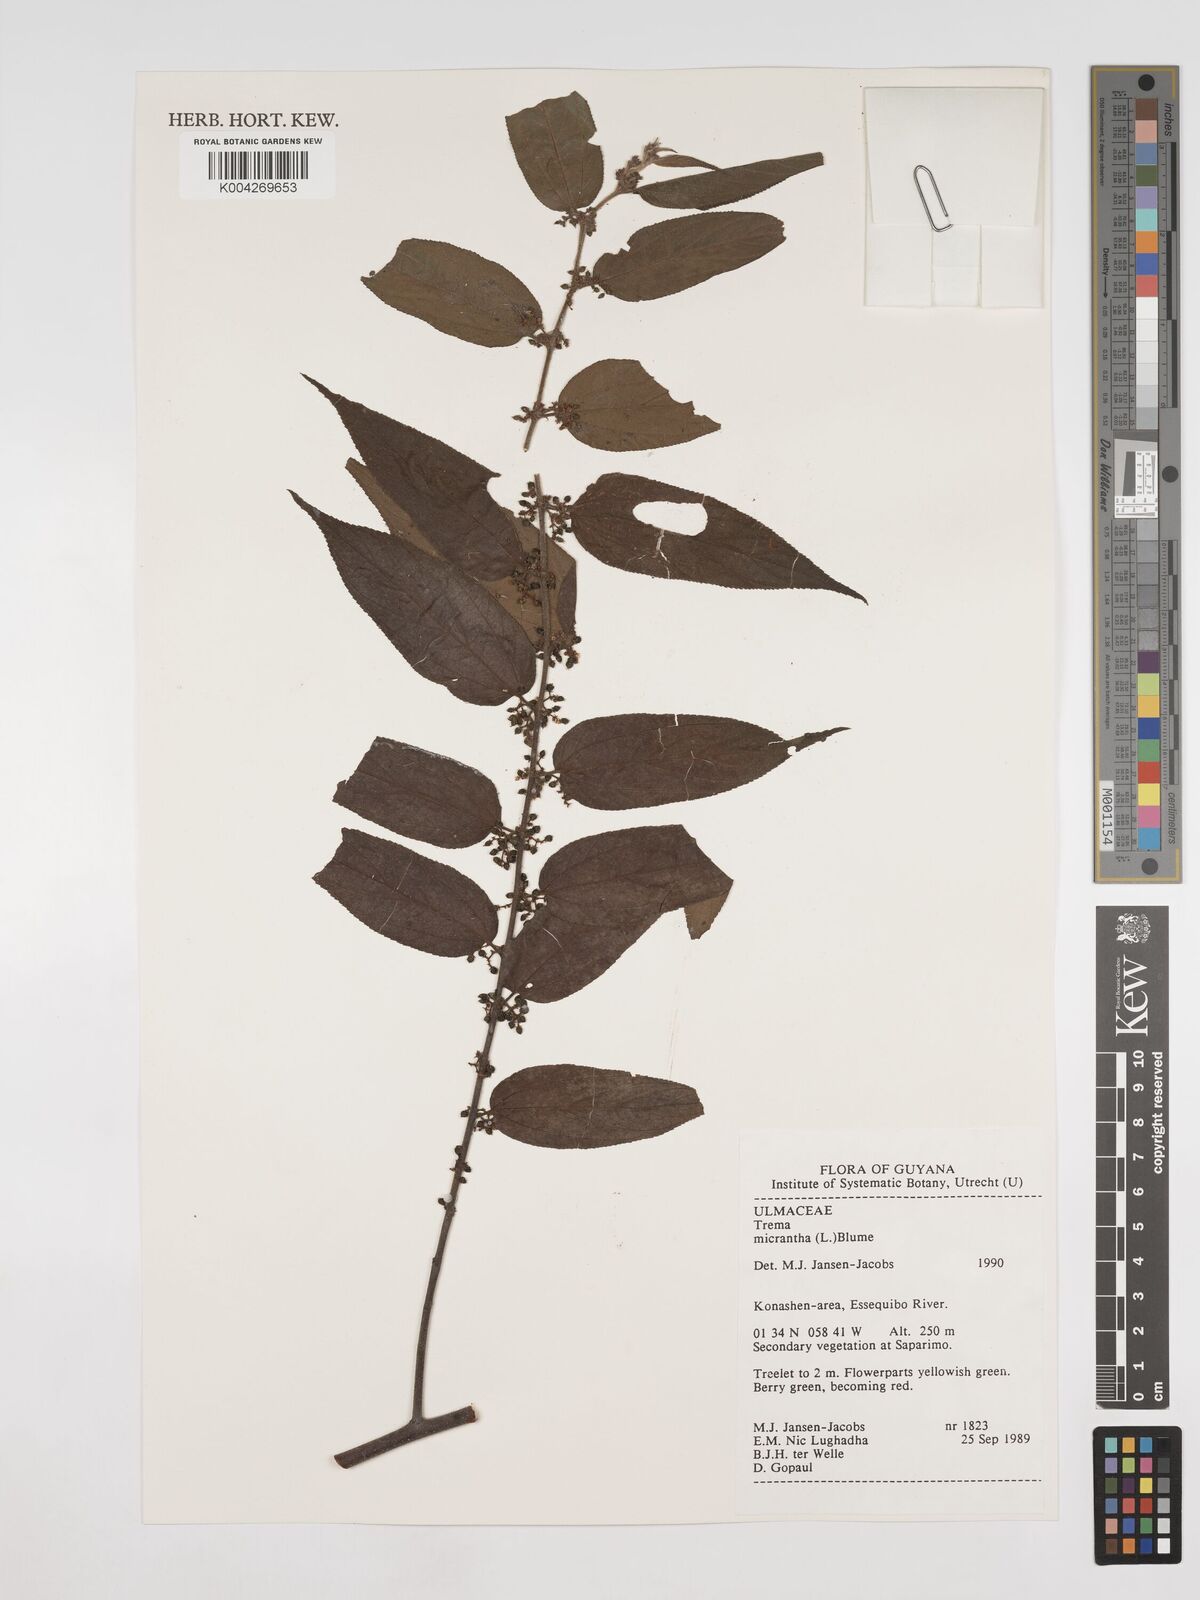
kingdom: Plantae
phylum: Tracheophyta
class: Magnoliopsida
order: Rosales
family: Cannabaceae
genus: Trema
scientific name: Trema micranthum
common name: Jamaican nettletree
